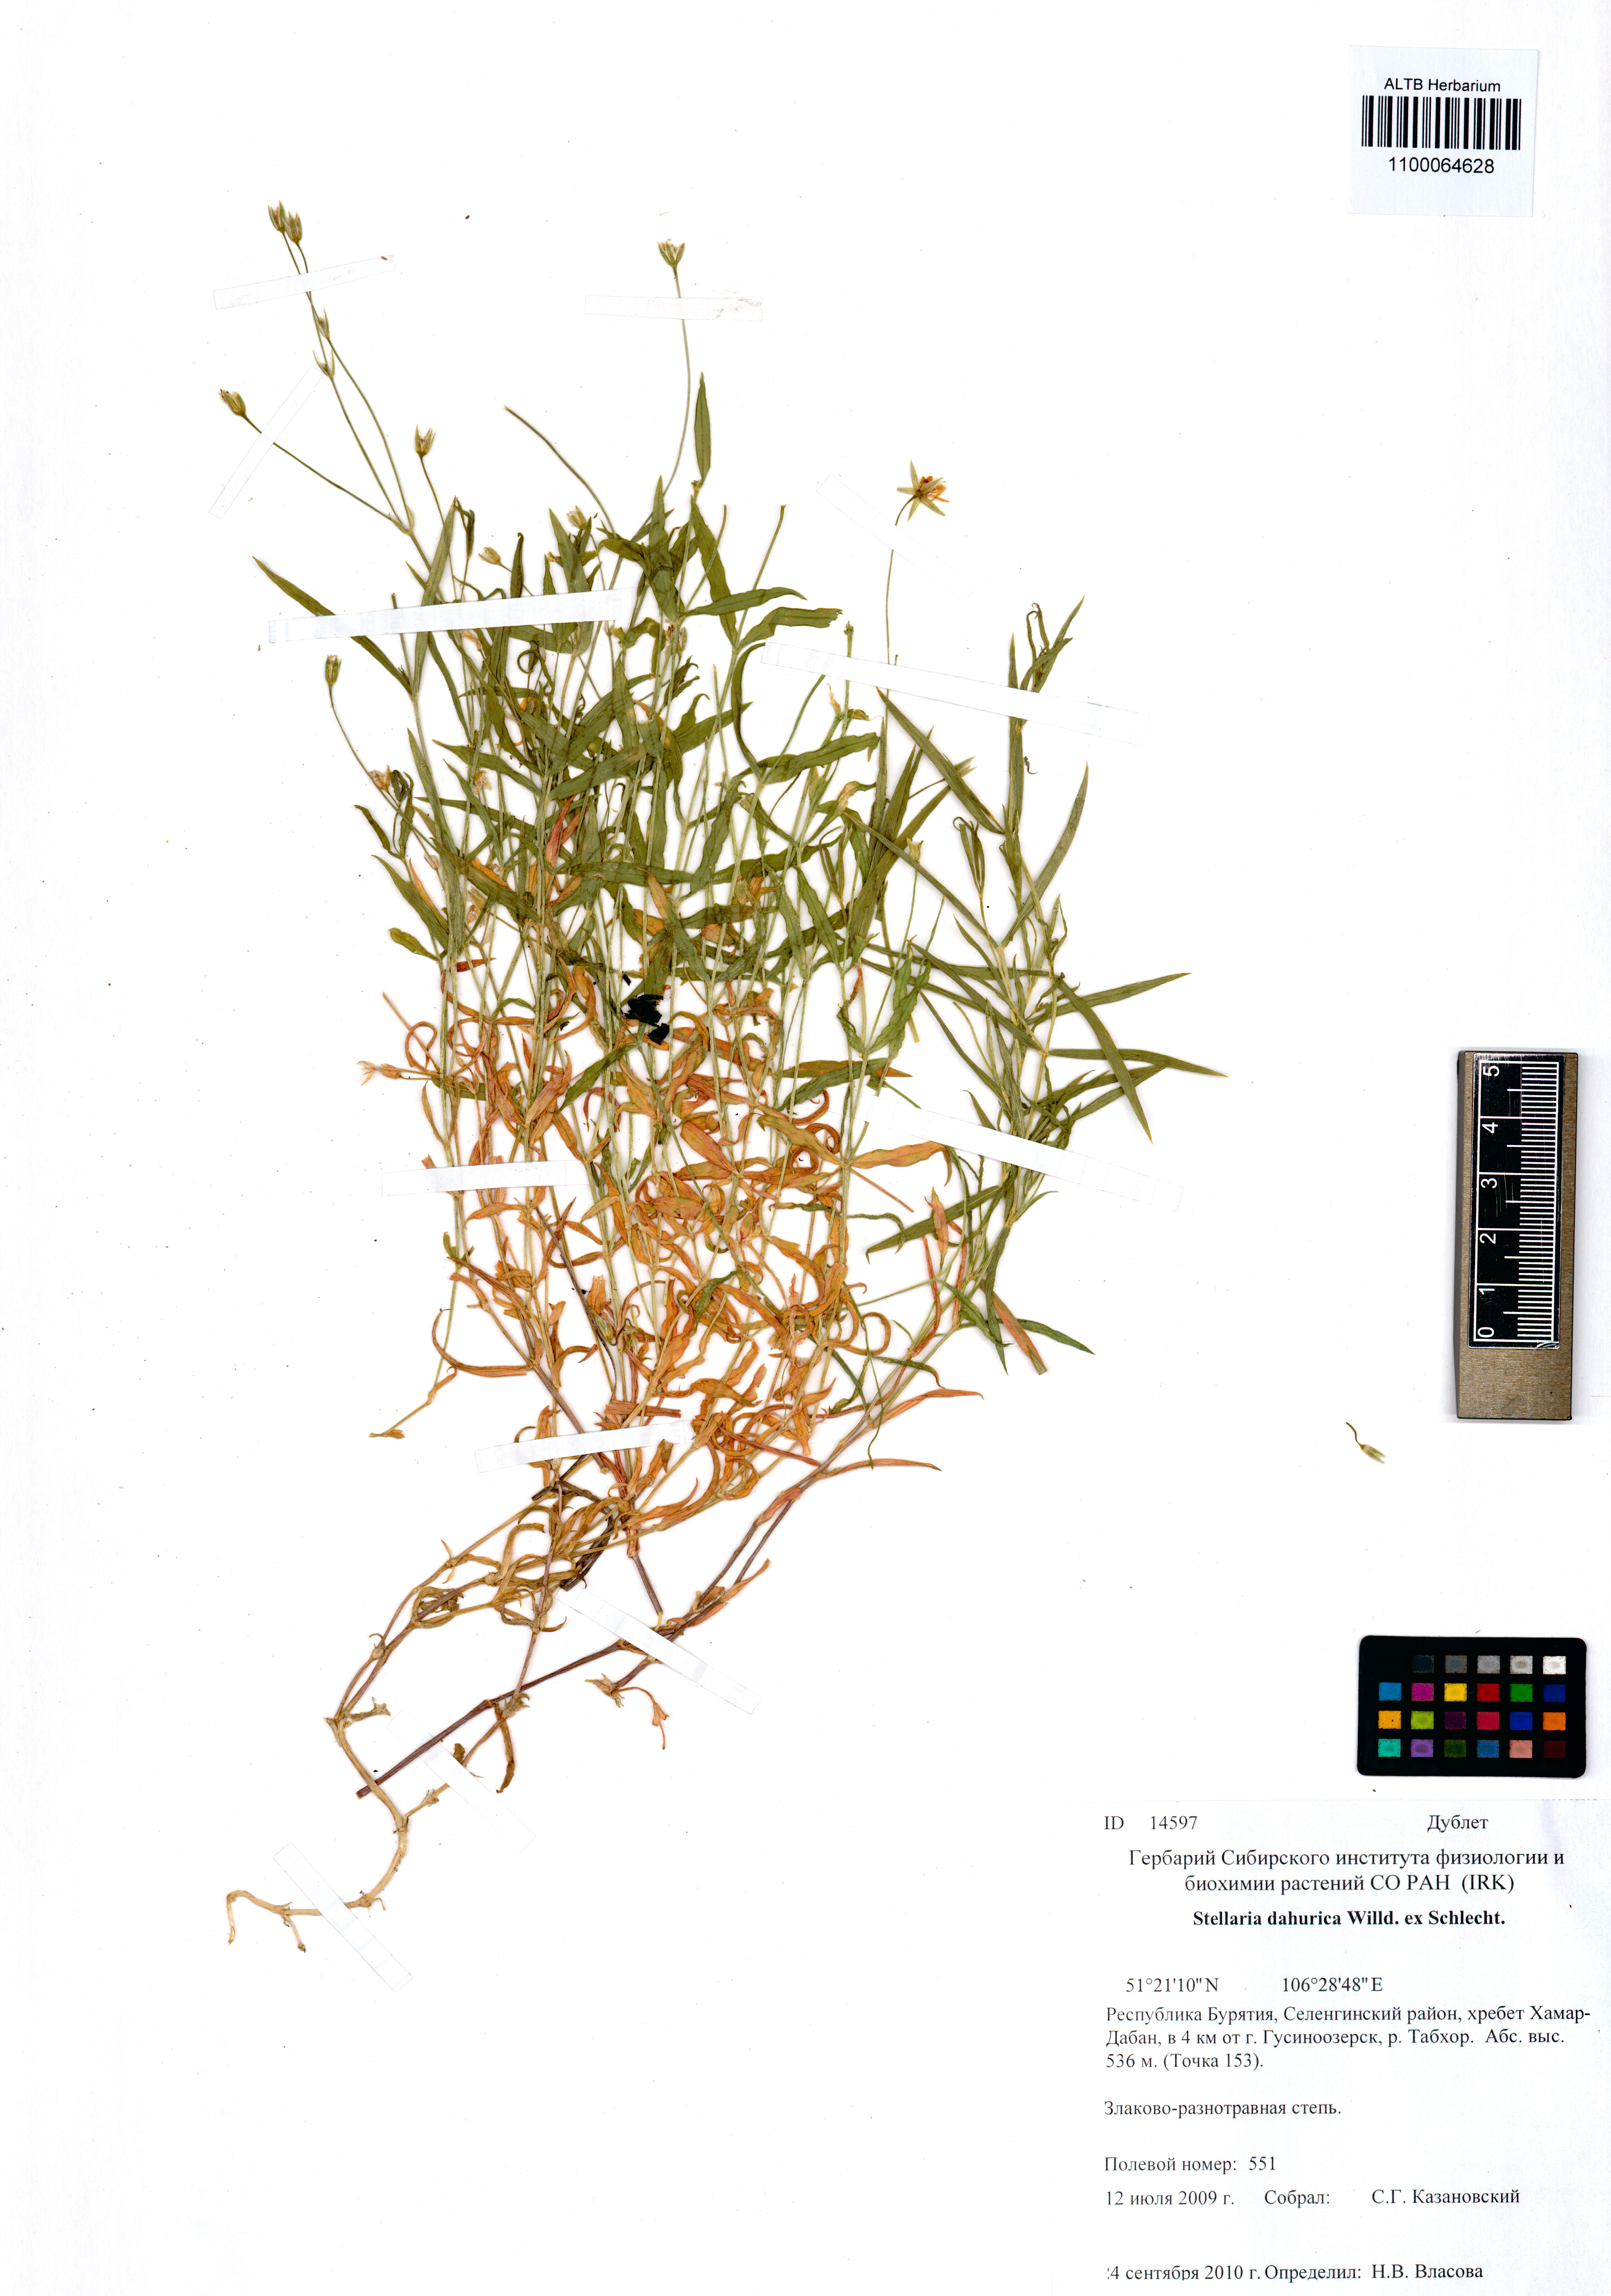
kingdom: Plantae
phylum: Tracheophyta
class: Magnoliopsida
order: Caryophyllales
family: Caryophyllaceae
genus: Stellaria
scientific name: Stellaria davurica
